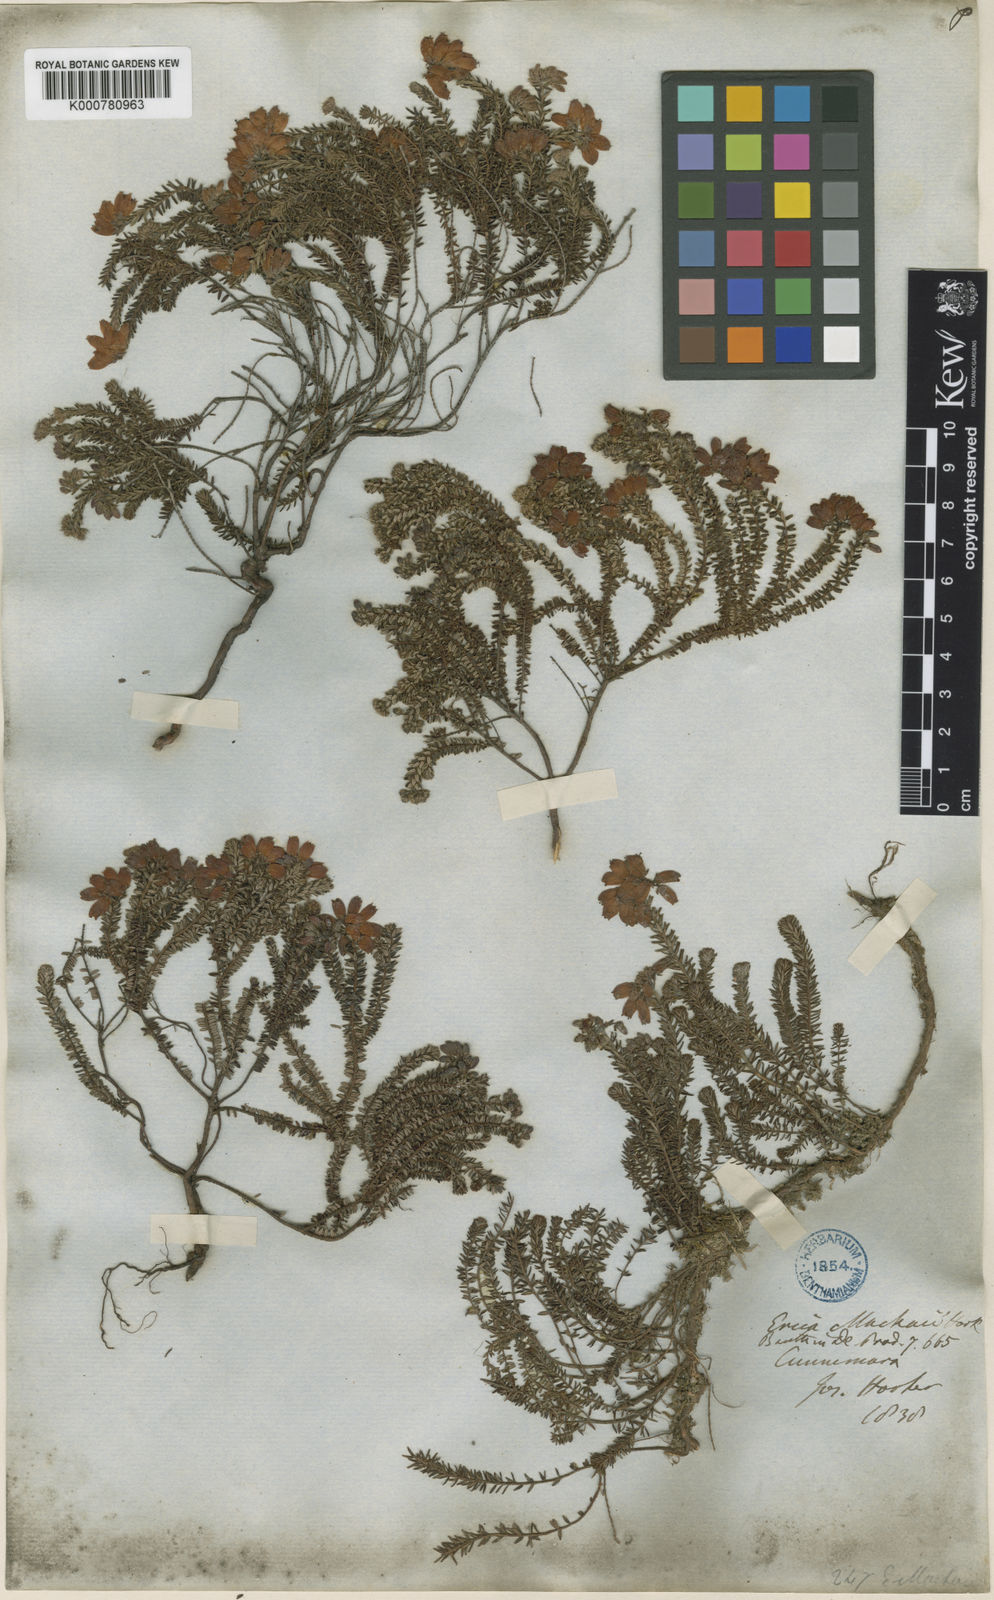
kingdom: Plantae
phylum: Tracheophyta
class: Magnoliopsida
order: Ericales
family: Ericaceae
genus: Erica
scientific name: Erica
